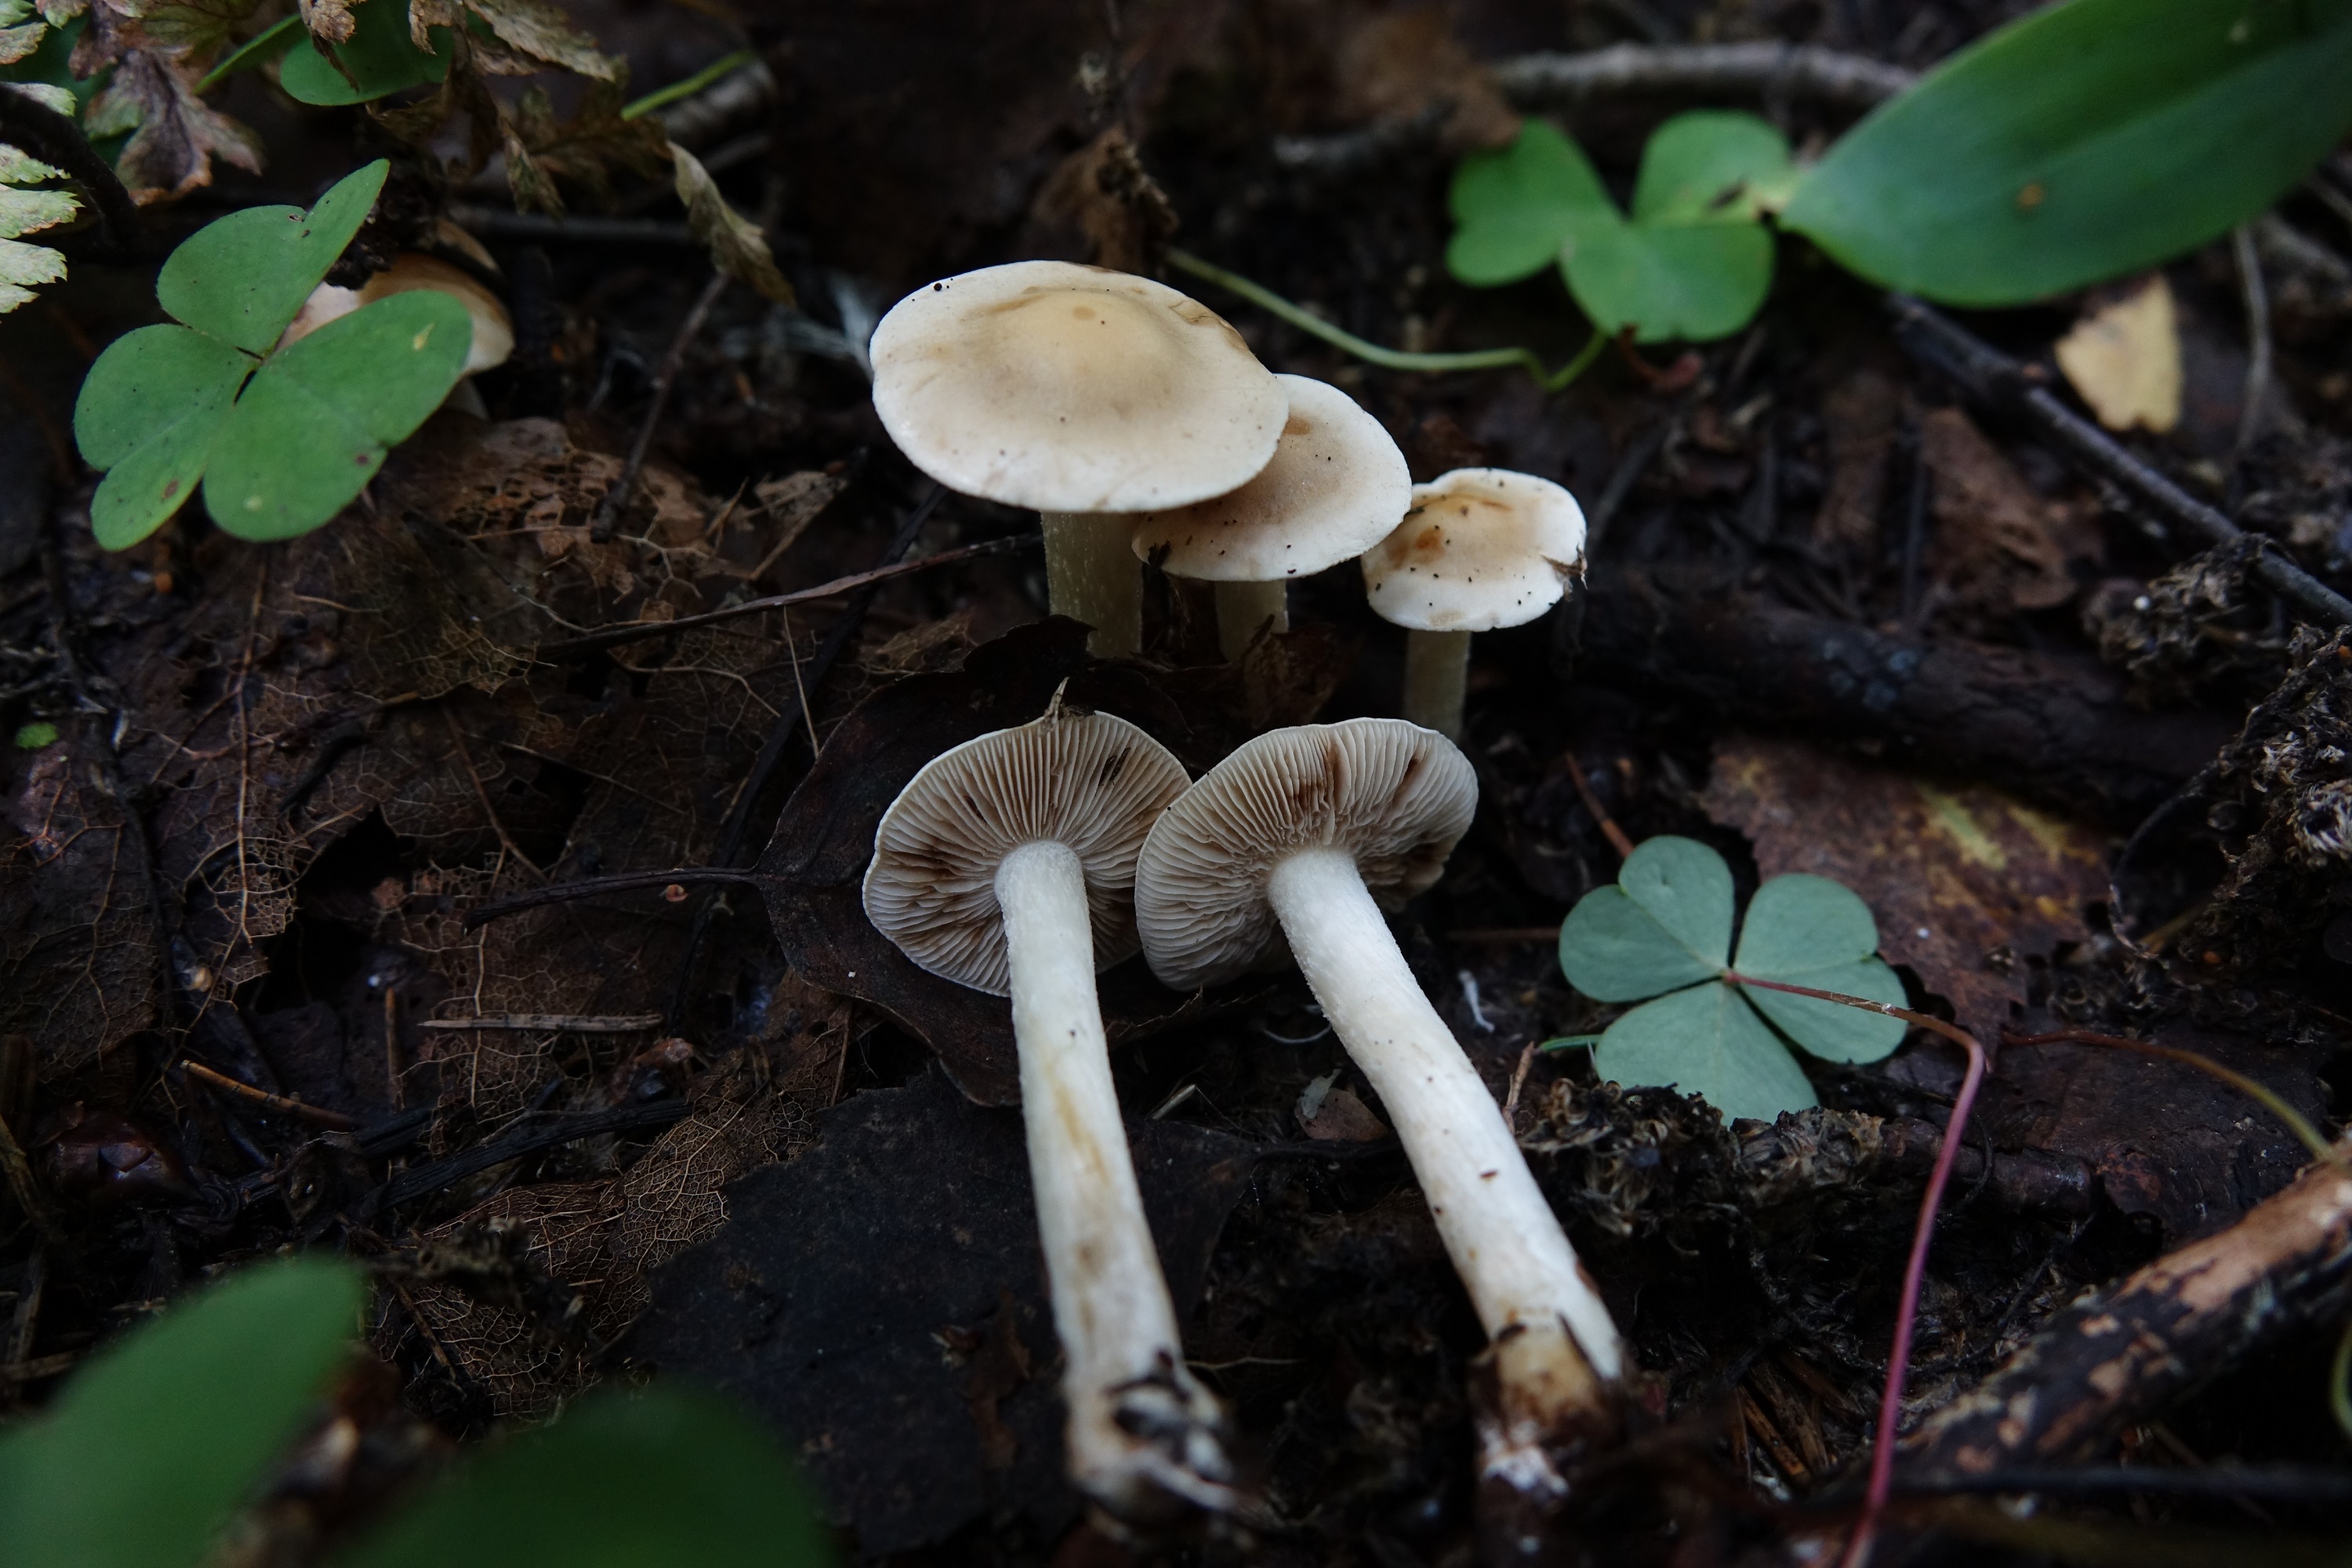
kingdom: Fungi
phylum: Basidiomycota
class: Agaricomycetes
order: Agaricales
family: Hymenogastraceae
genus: Hebeloma
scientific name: Hebeloma
